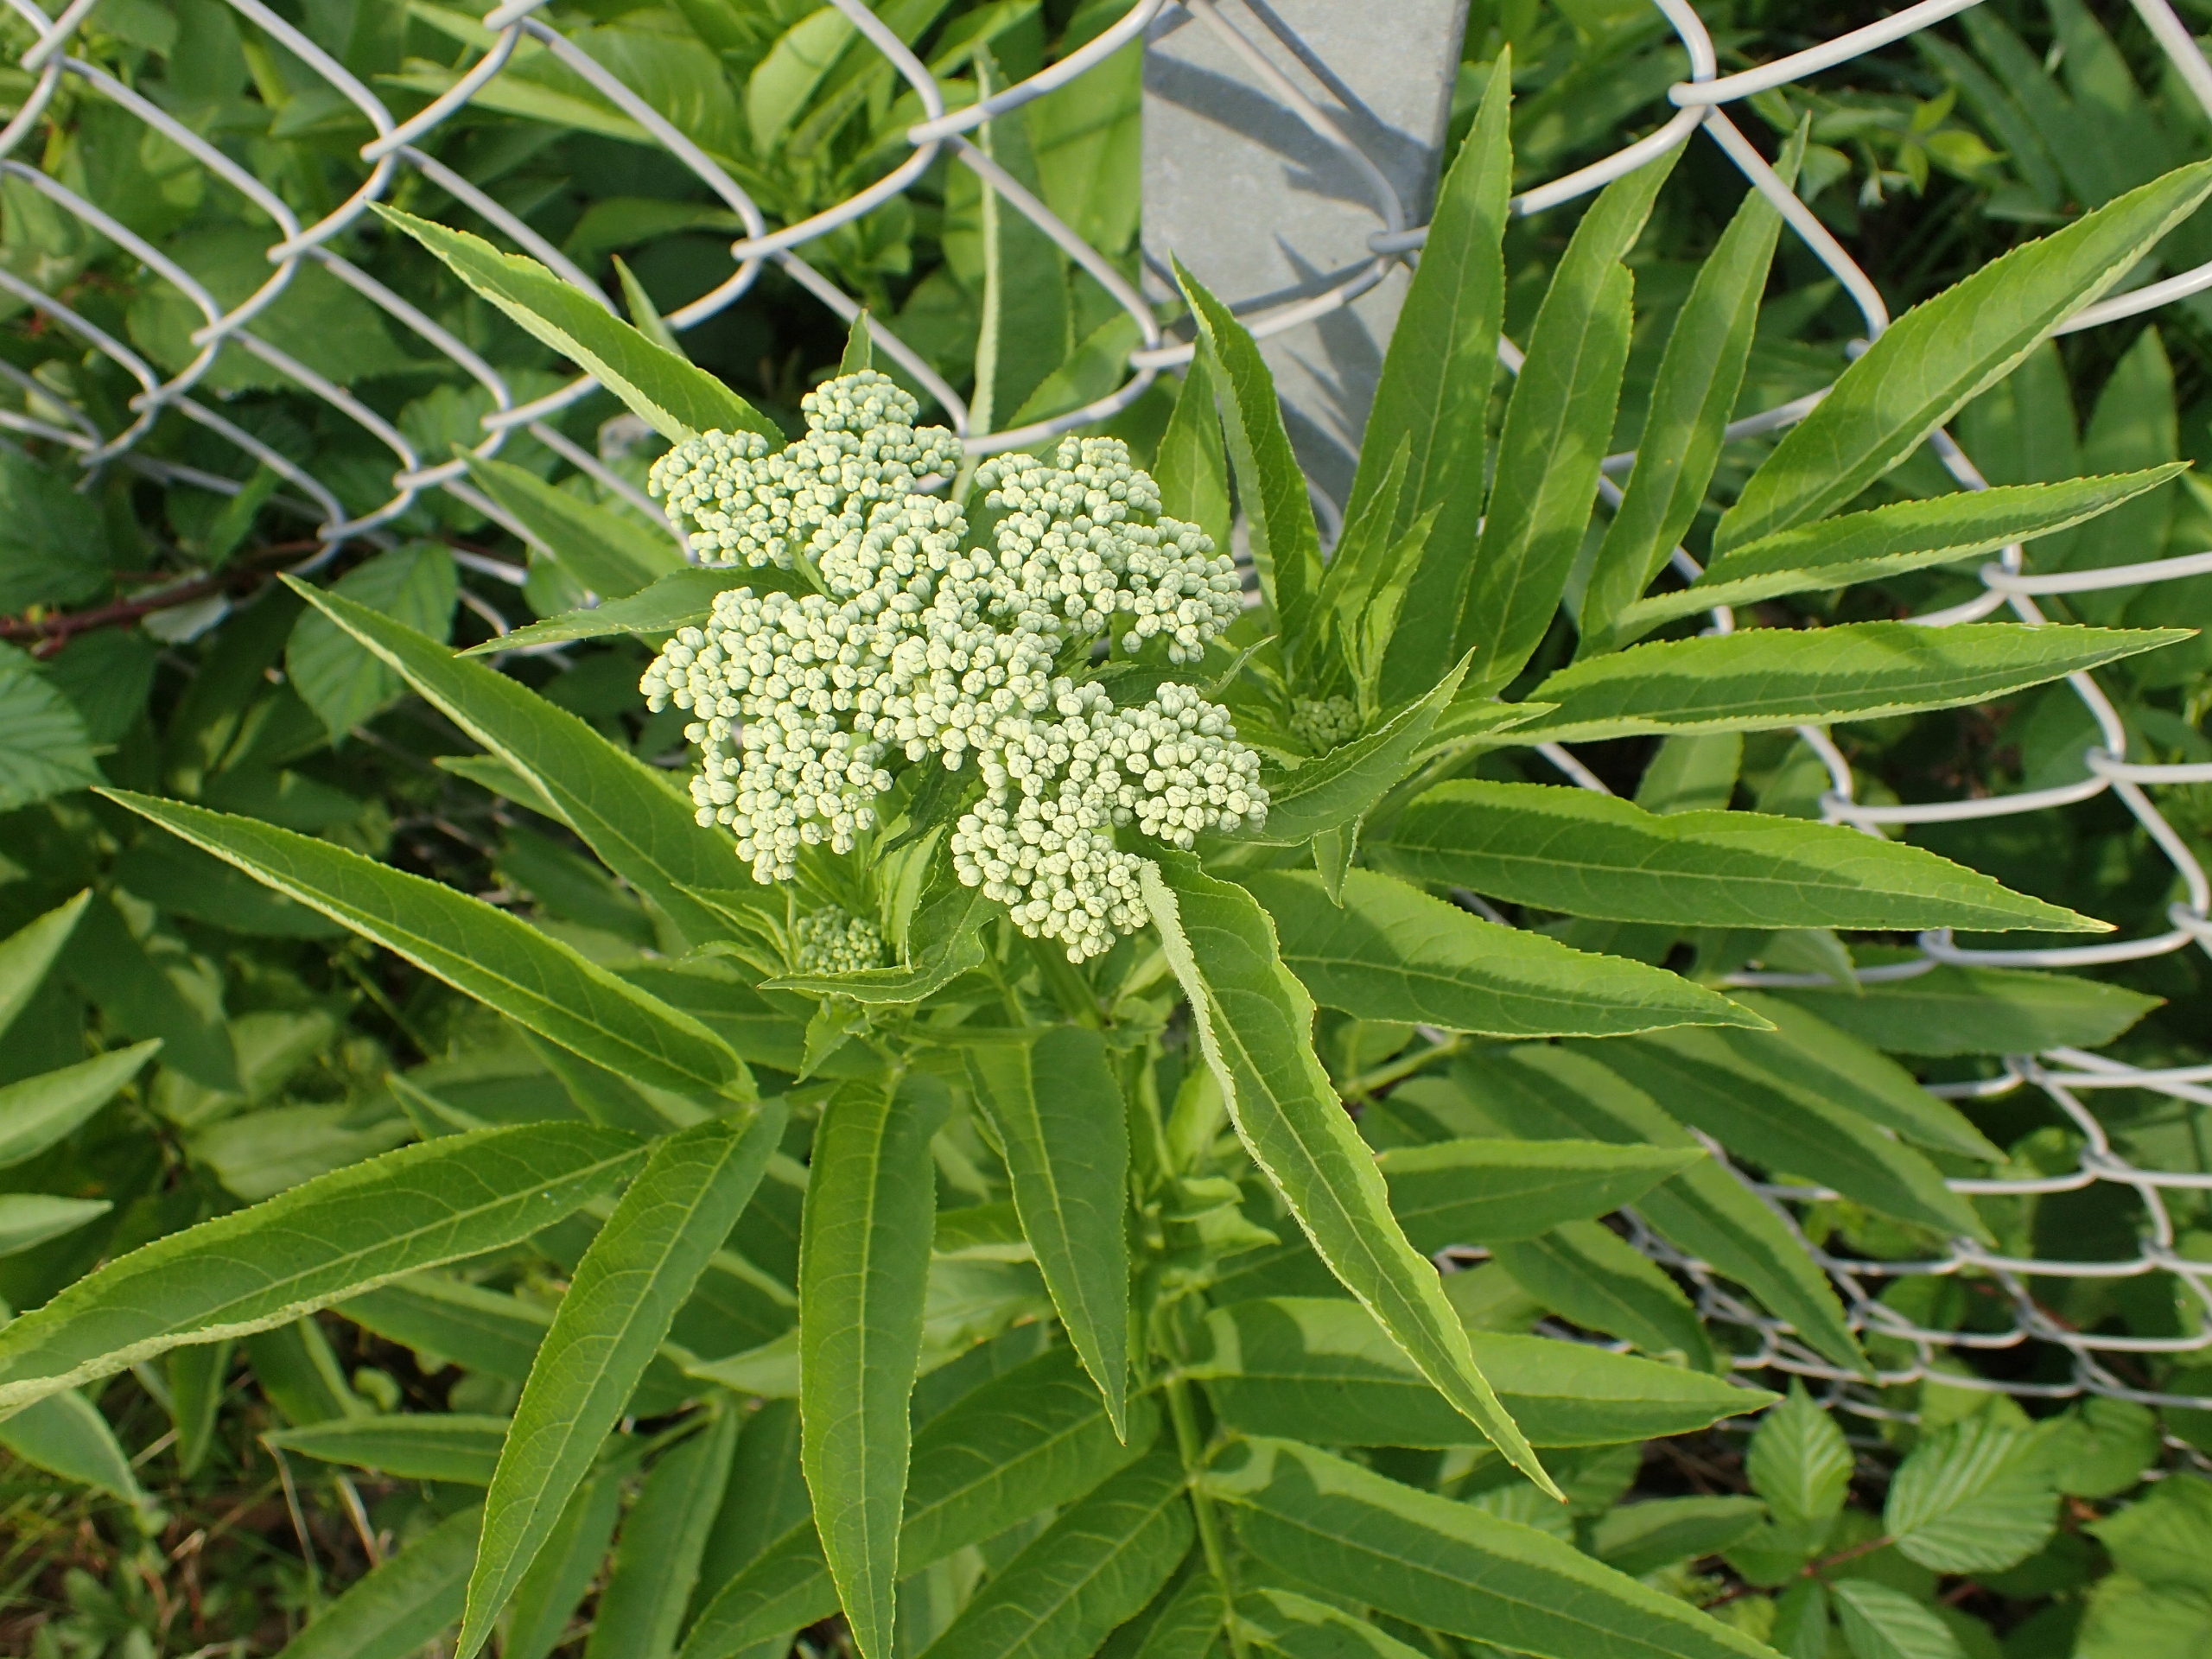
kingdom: Plantae
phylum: Tracheophyta
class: Magnoliopsida
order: Dipsacales
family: Viburnaceae
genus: Sambucus
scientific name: Sambucus ebulus
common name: Sommer-hyld
